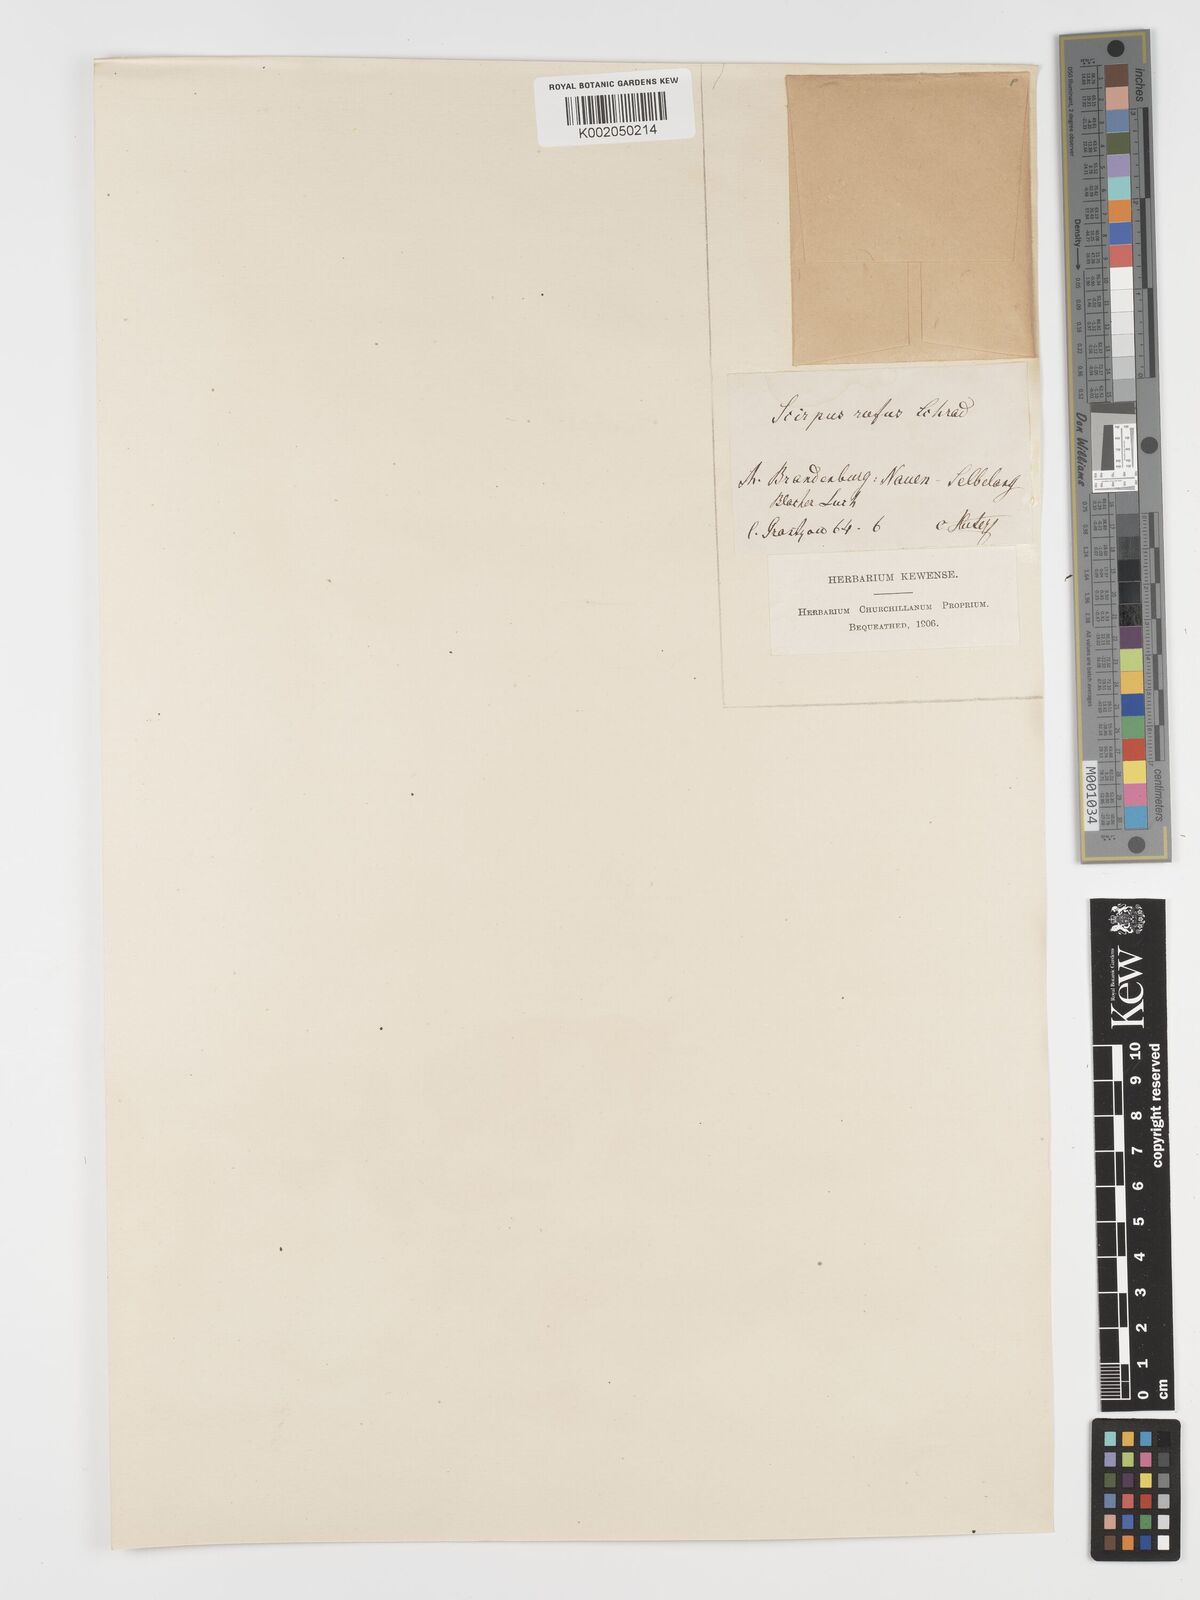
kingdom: Plantae
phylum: Tracheophyta
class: Liliopsida
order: Poales
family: Cyperaceae
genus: Blysmus
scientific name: Blysmus rufus
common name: Saltmarsh flat-sedge
